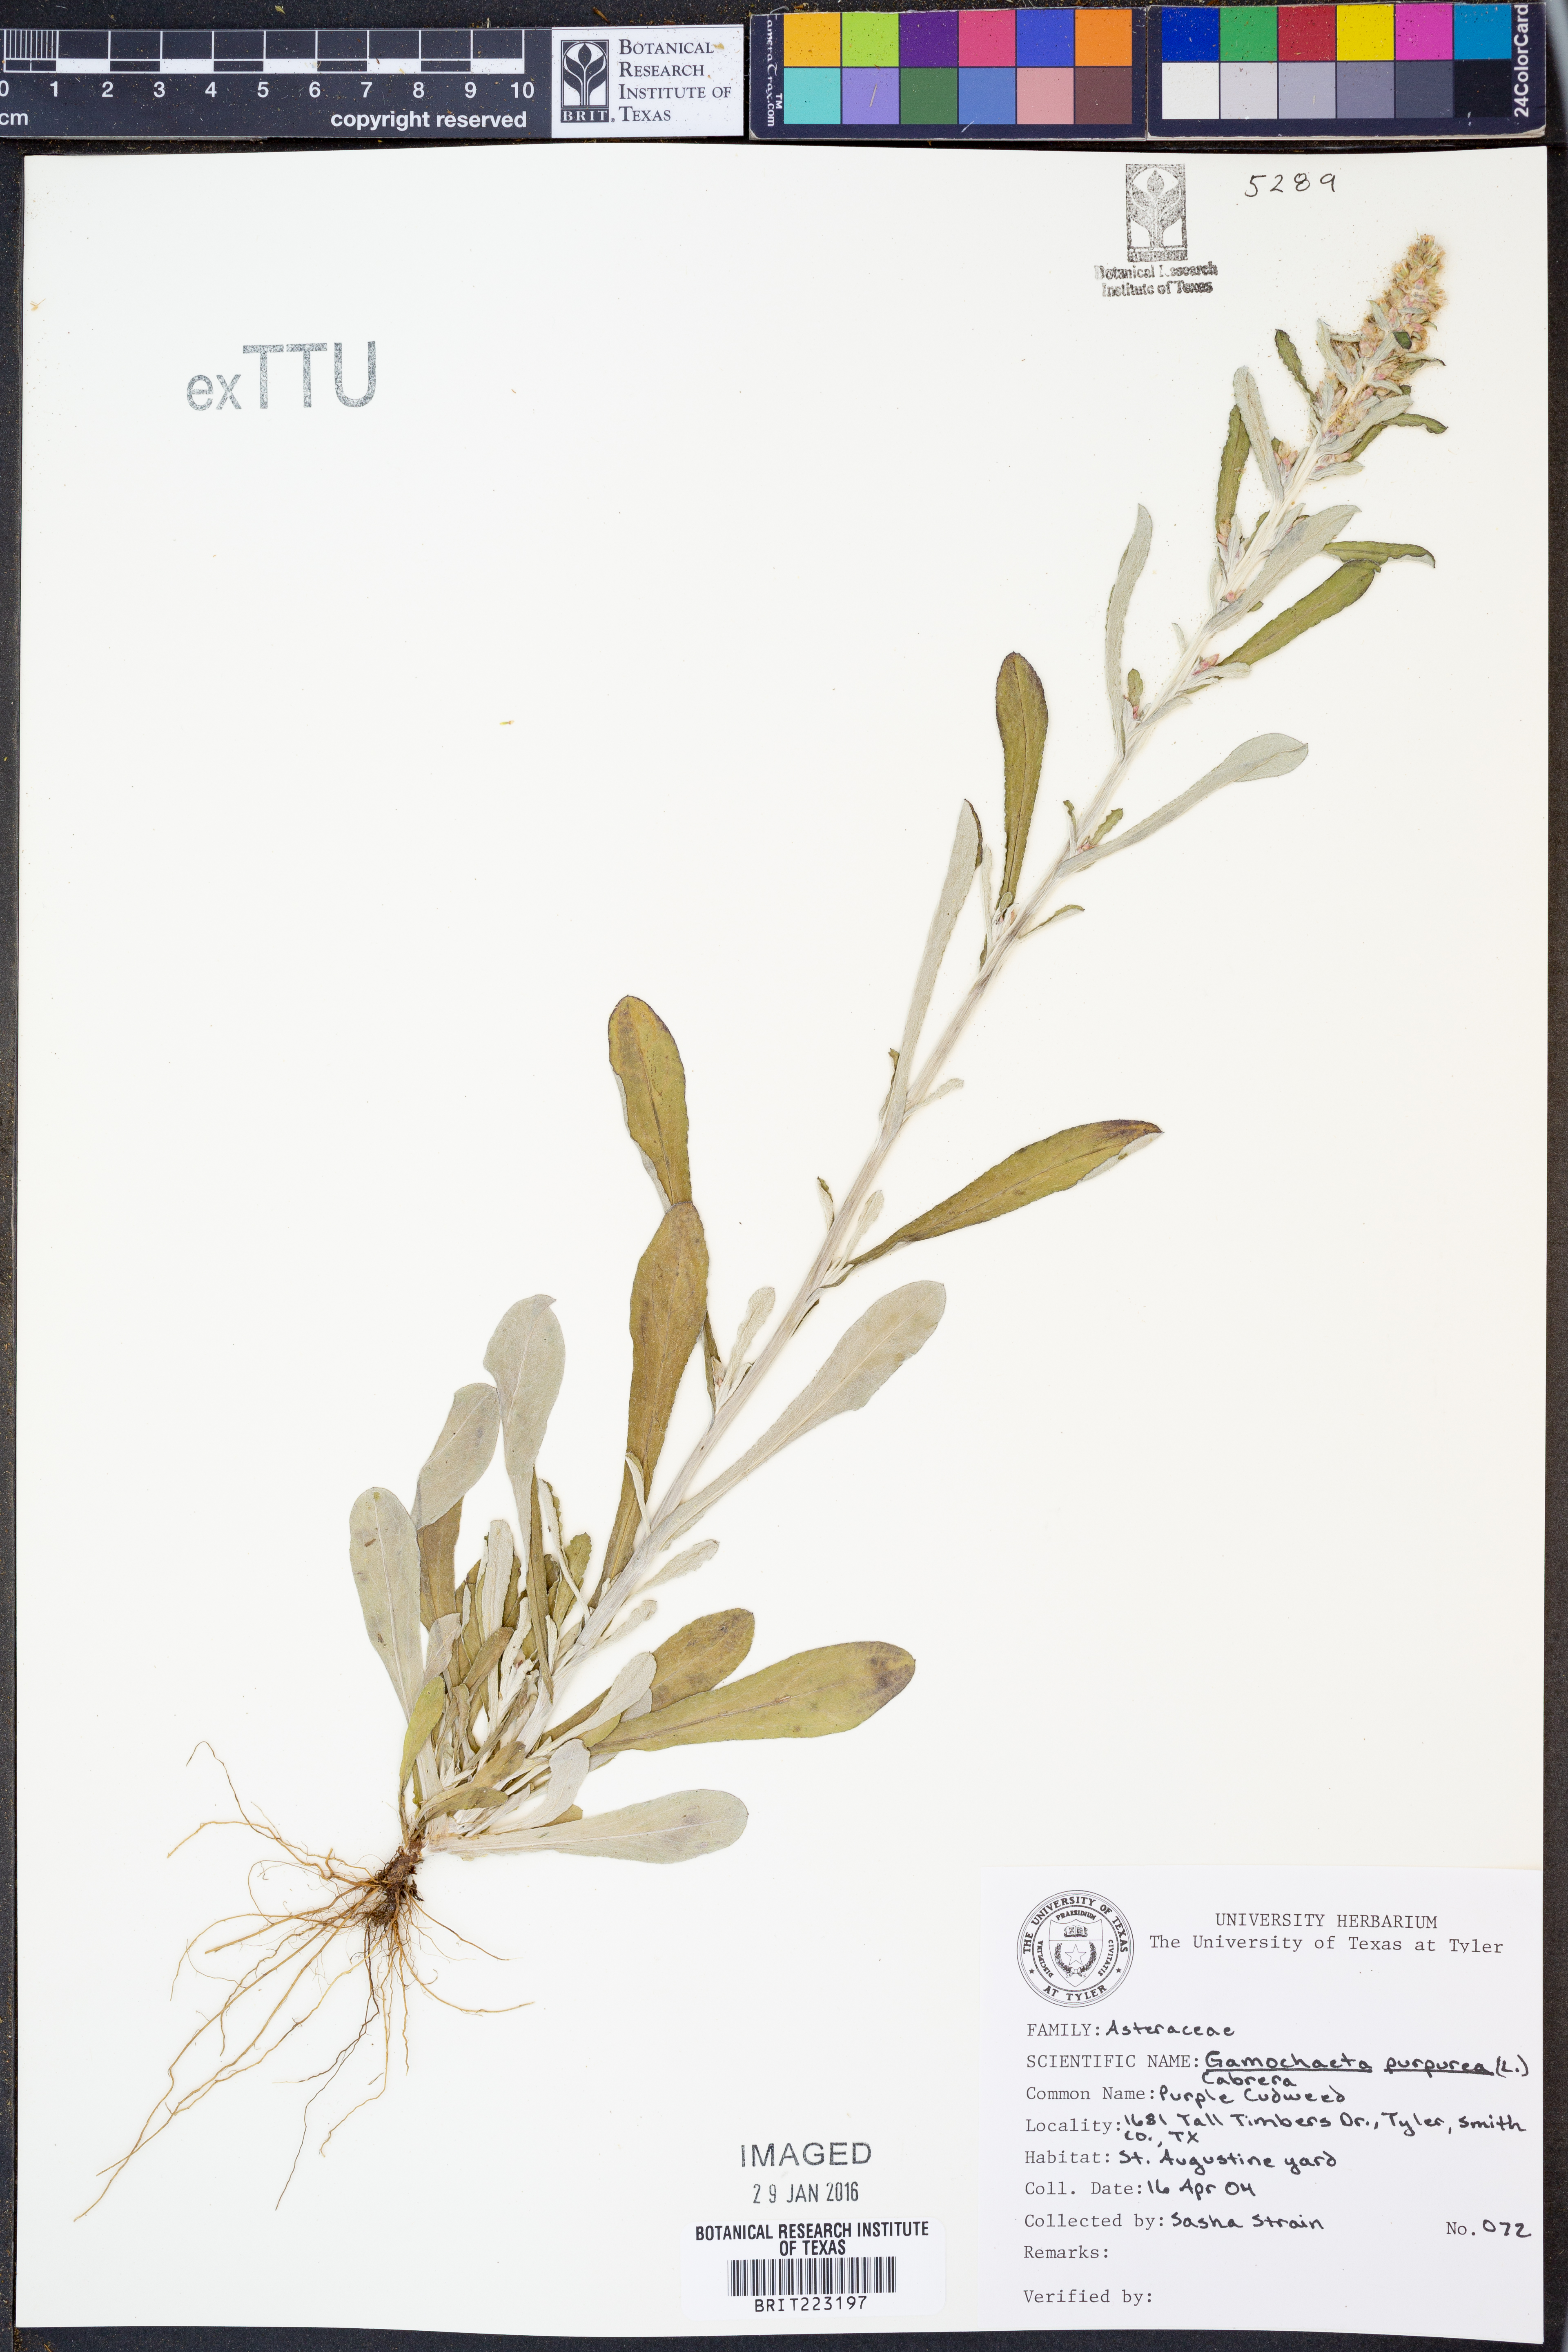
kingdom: Plantae
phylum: Tracheophyta
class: Magnoliopsida
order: Asterales
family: Asteraceae
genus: Gamochaeta
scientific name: Gamochaeta purpurea
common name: Purple cudweed
